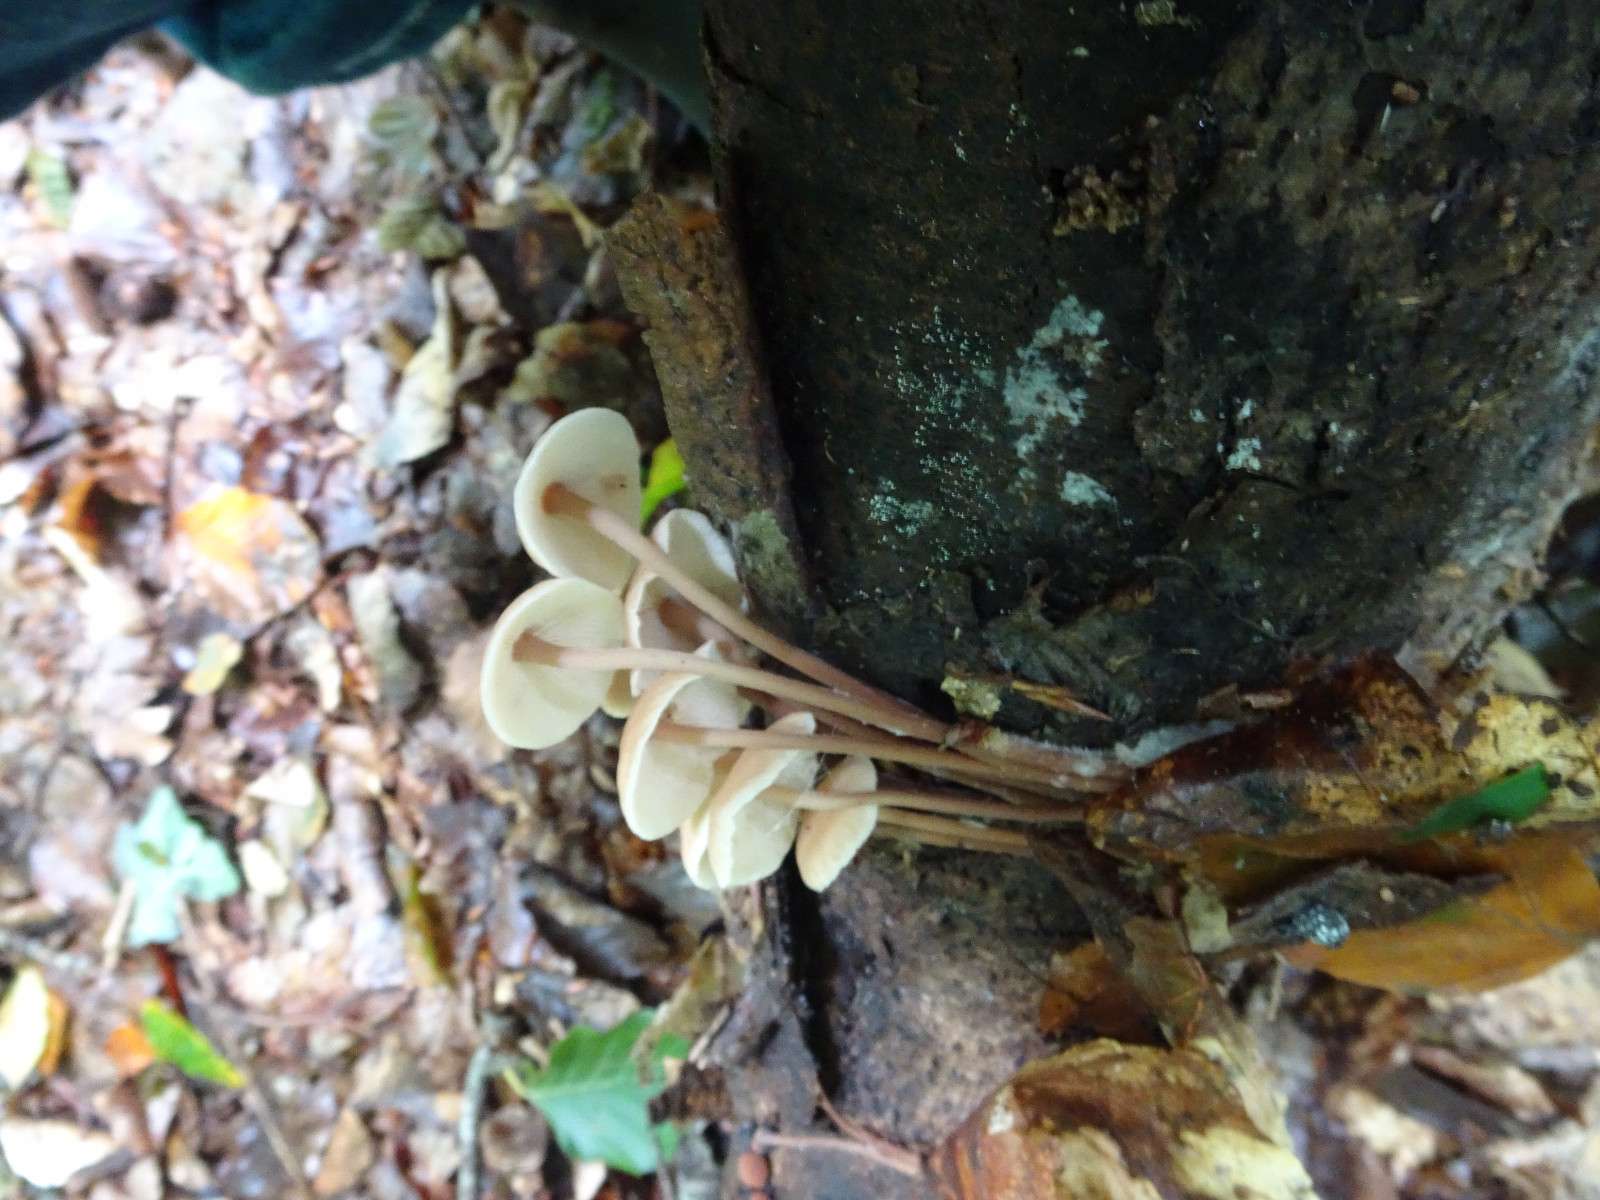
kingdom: Fungi
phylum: Basidiomycota
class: Agaricomycetes
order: Agaricales
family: Omphalotaceae
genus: Collybiopsis
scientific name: Collybiopsis confluens
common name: knippe-fladhat
